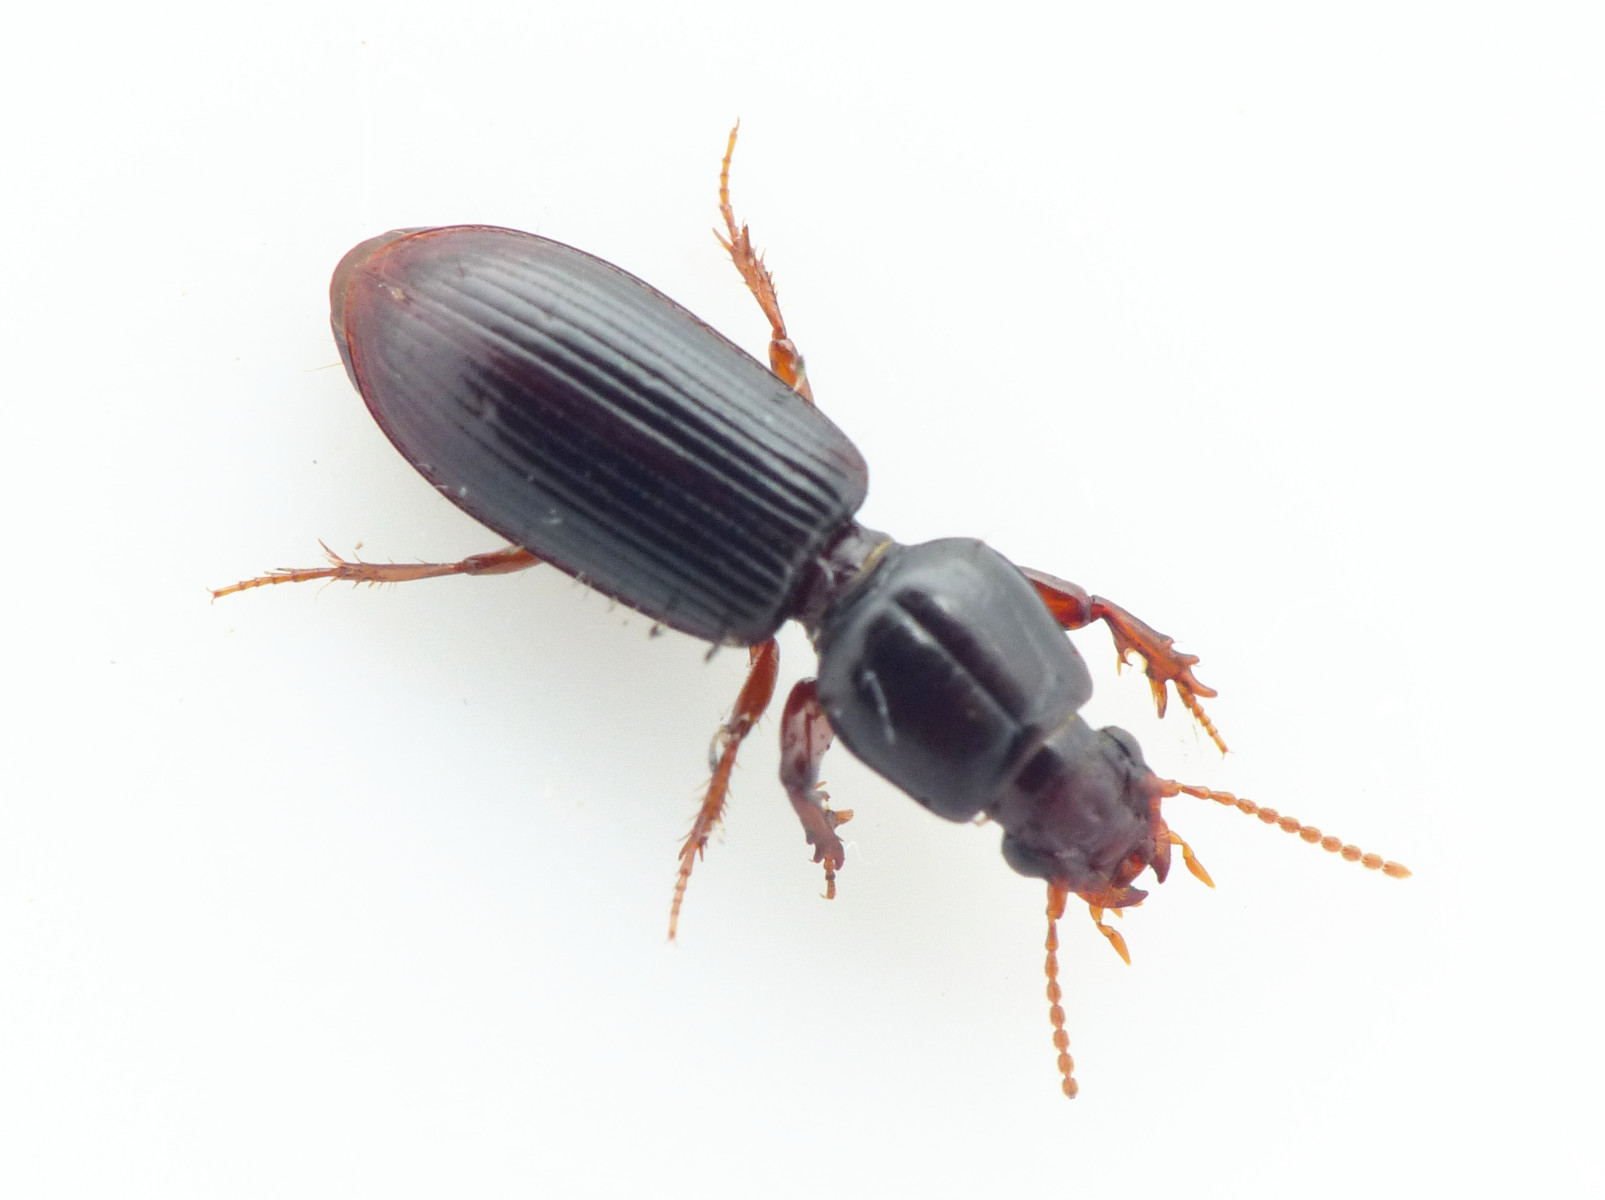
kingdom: Fungi
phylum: Ascomycota
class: Laboulbeniomycetes
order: Laboulbeniales
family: Laboulbeniaceae
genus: Laboulbenia
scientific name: Laboulbenia clivinalis
